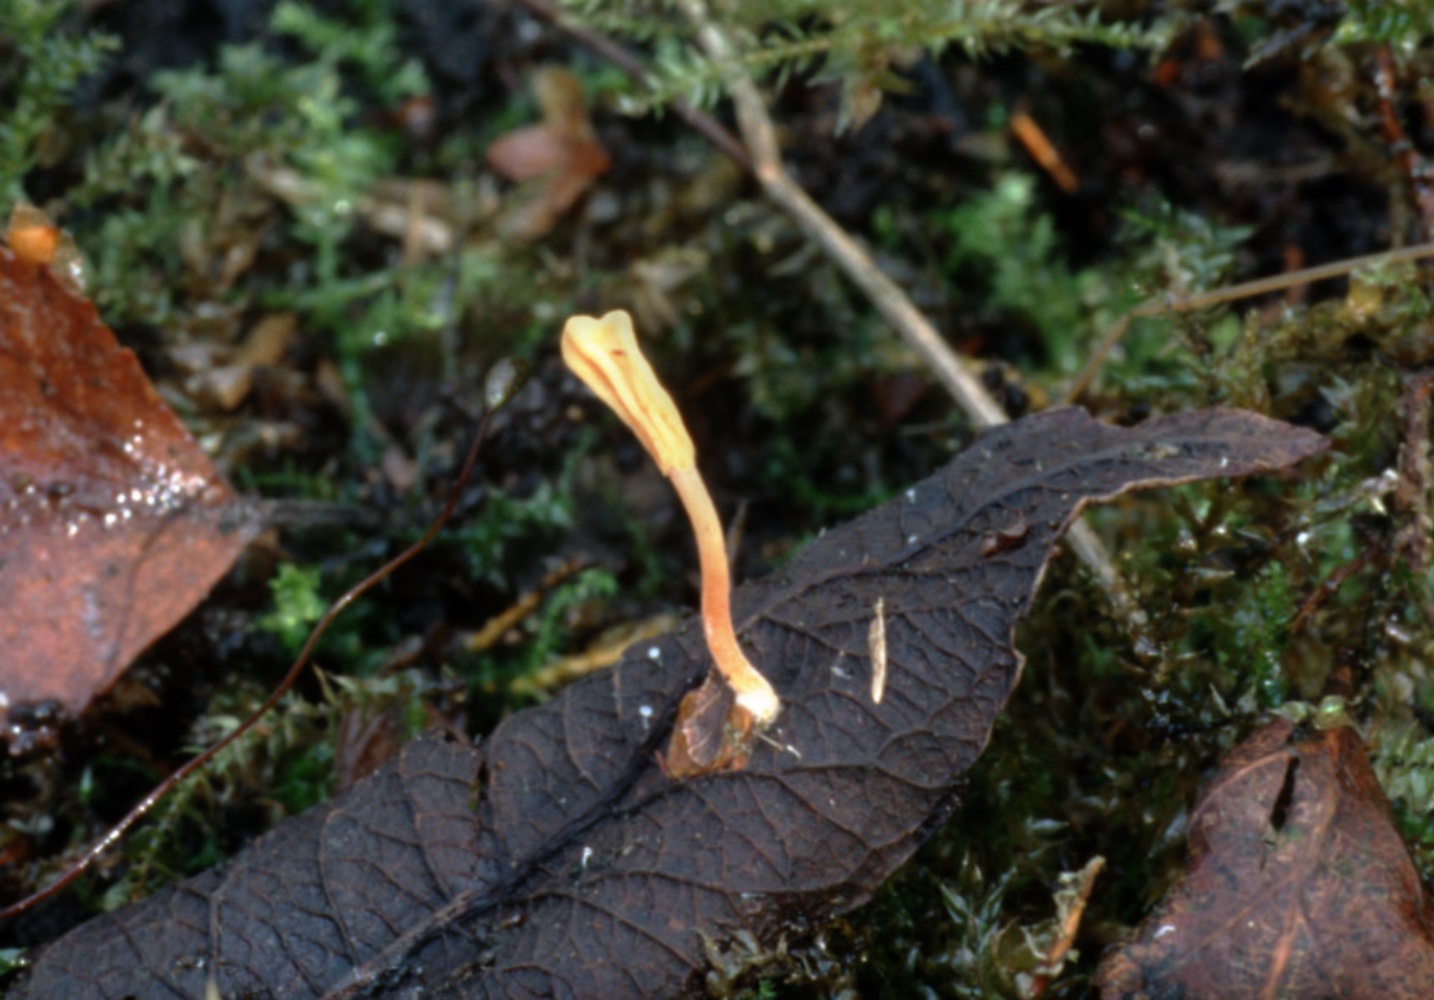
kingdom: Fungi
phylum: Ascomycota
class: Leotiomycetes
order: Helotiales
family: Helotiaceae
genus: Episclerotium
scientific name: Episclerotium sclerotipus
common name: gul sækhue
